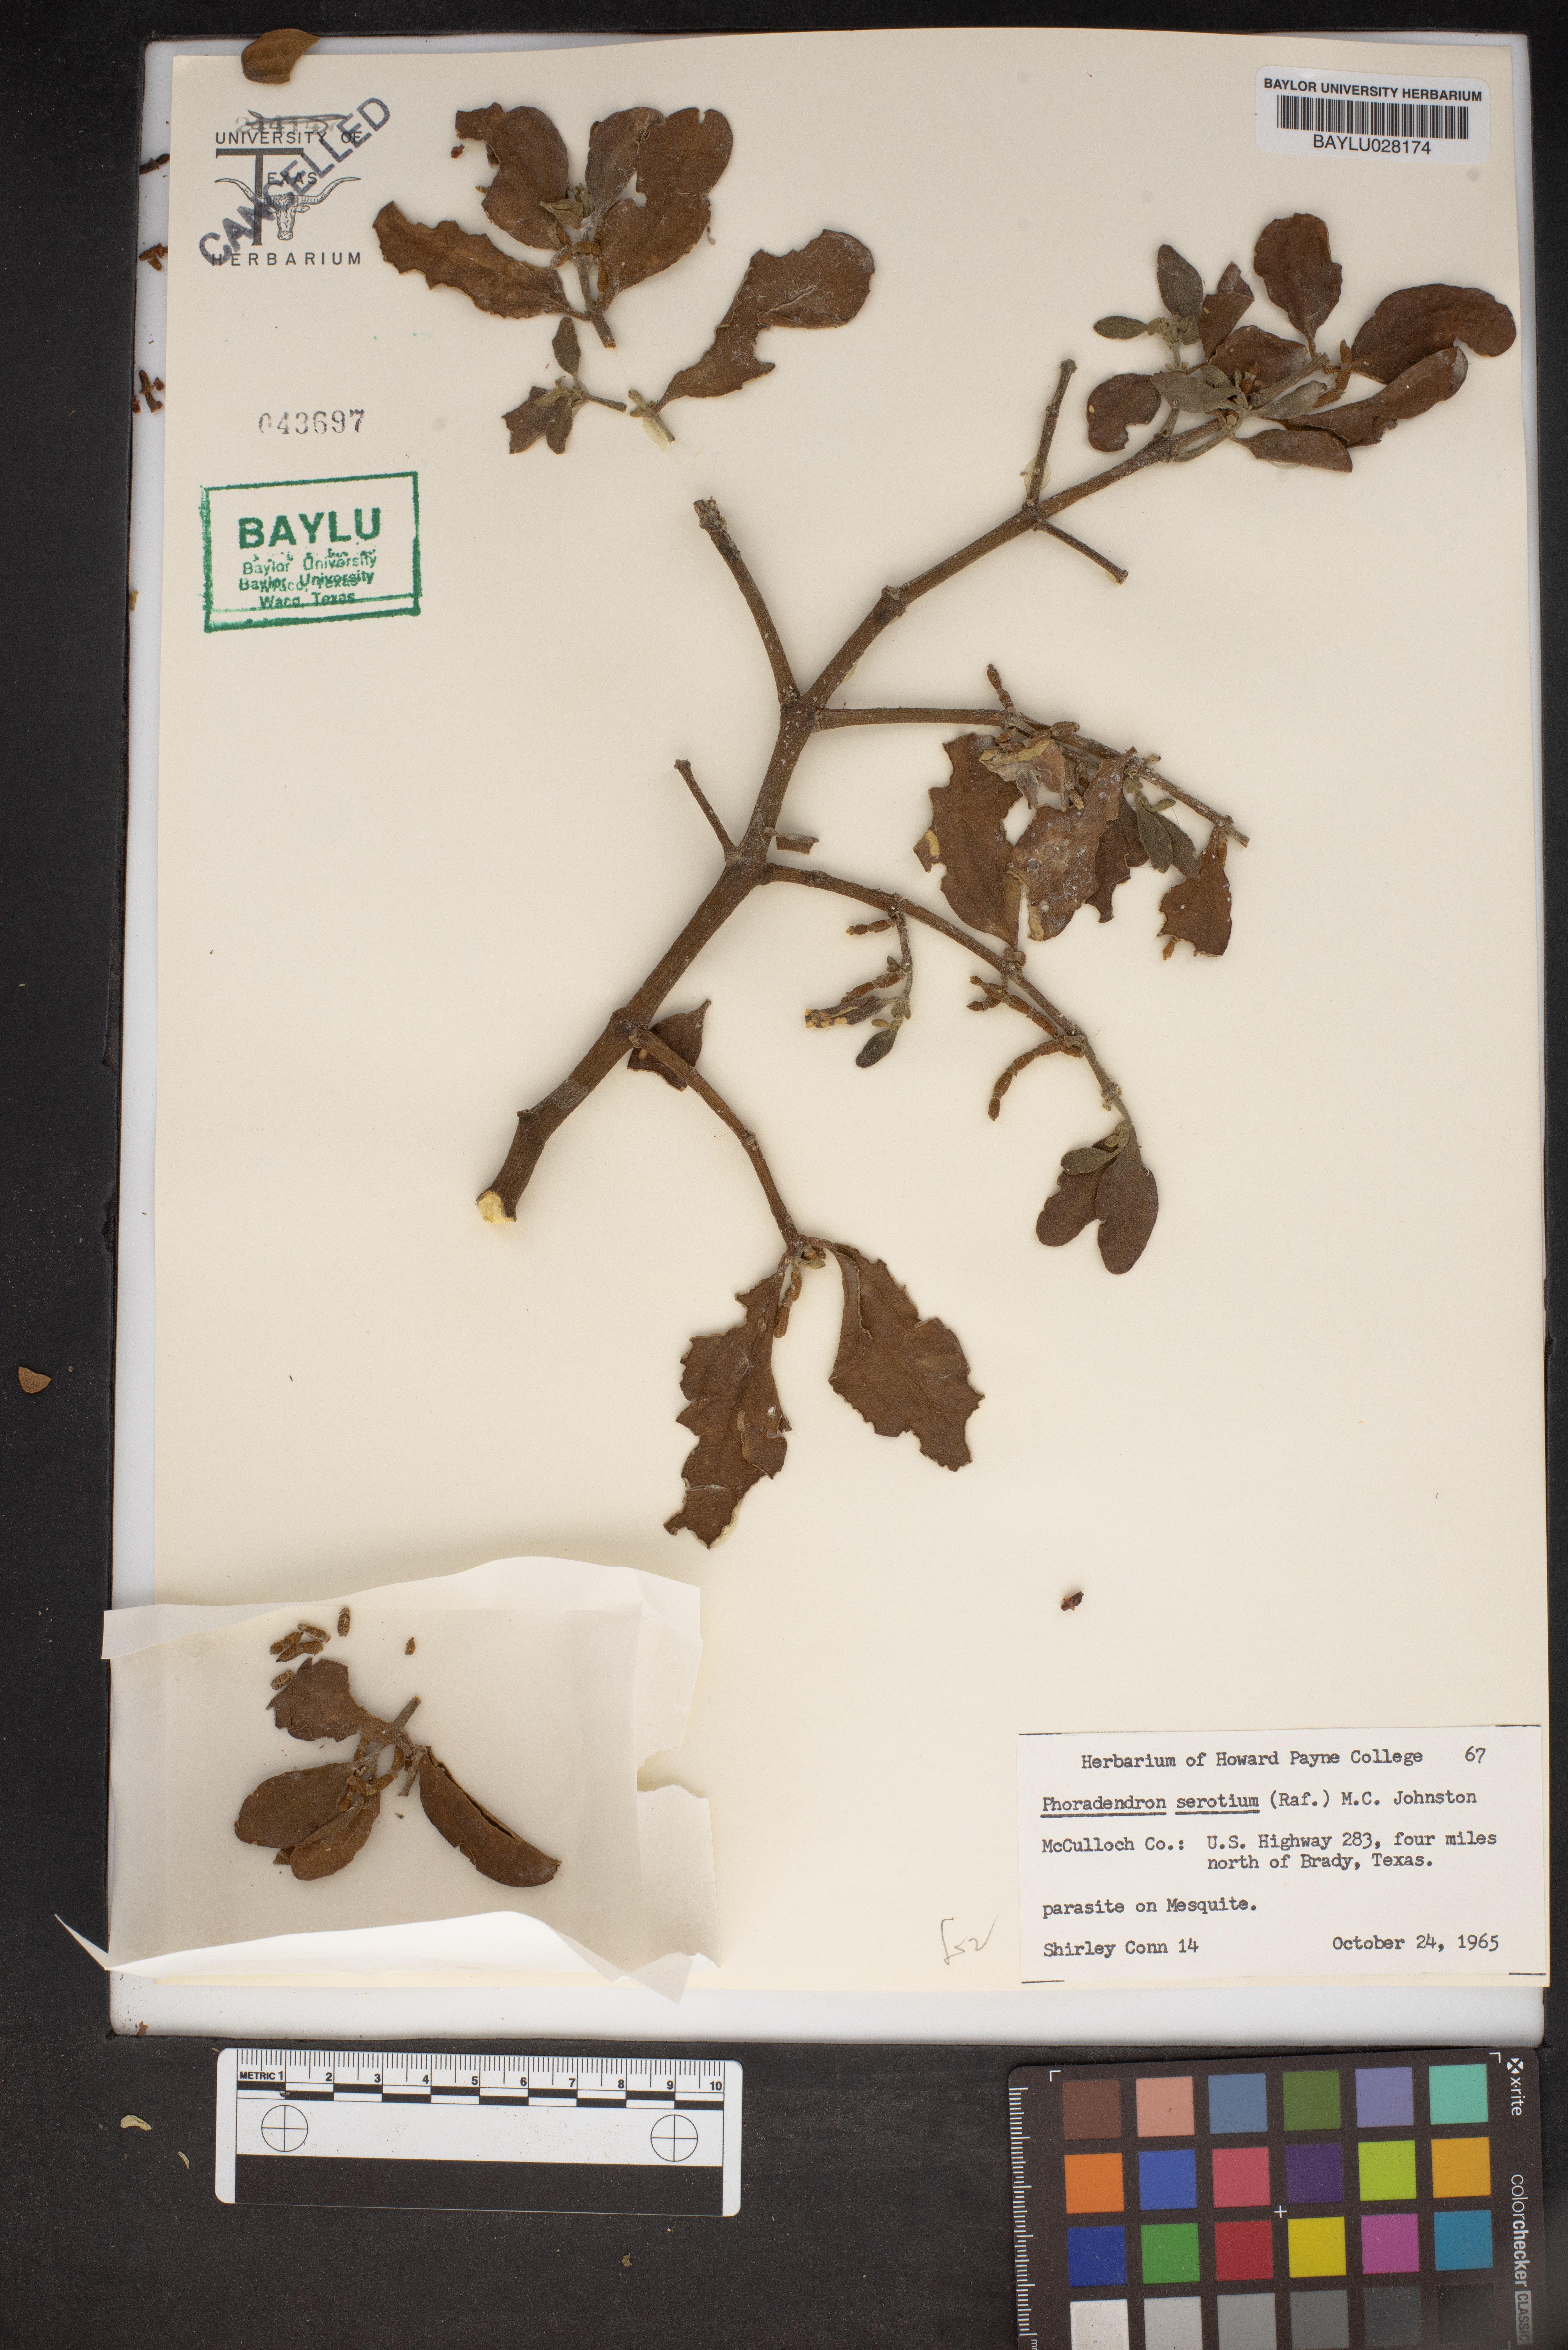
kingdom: Plantae
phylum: Tracheophyta
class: Magnoliopsida
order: Santalales
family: Viscaceae
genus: Phoradendron
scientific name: Phoradendron leucarpum
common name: Pacific mistletoe
